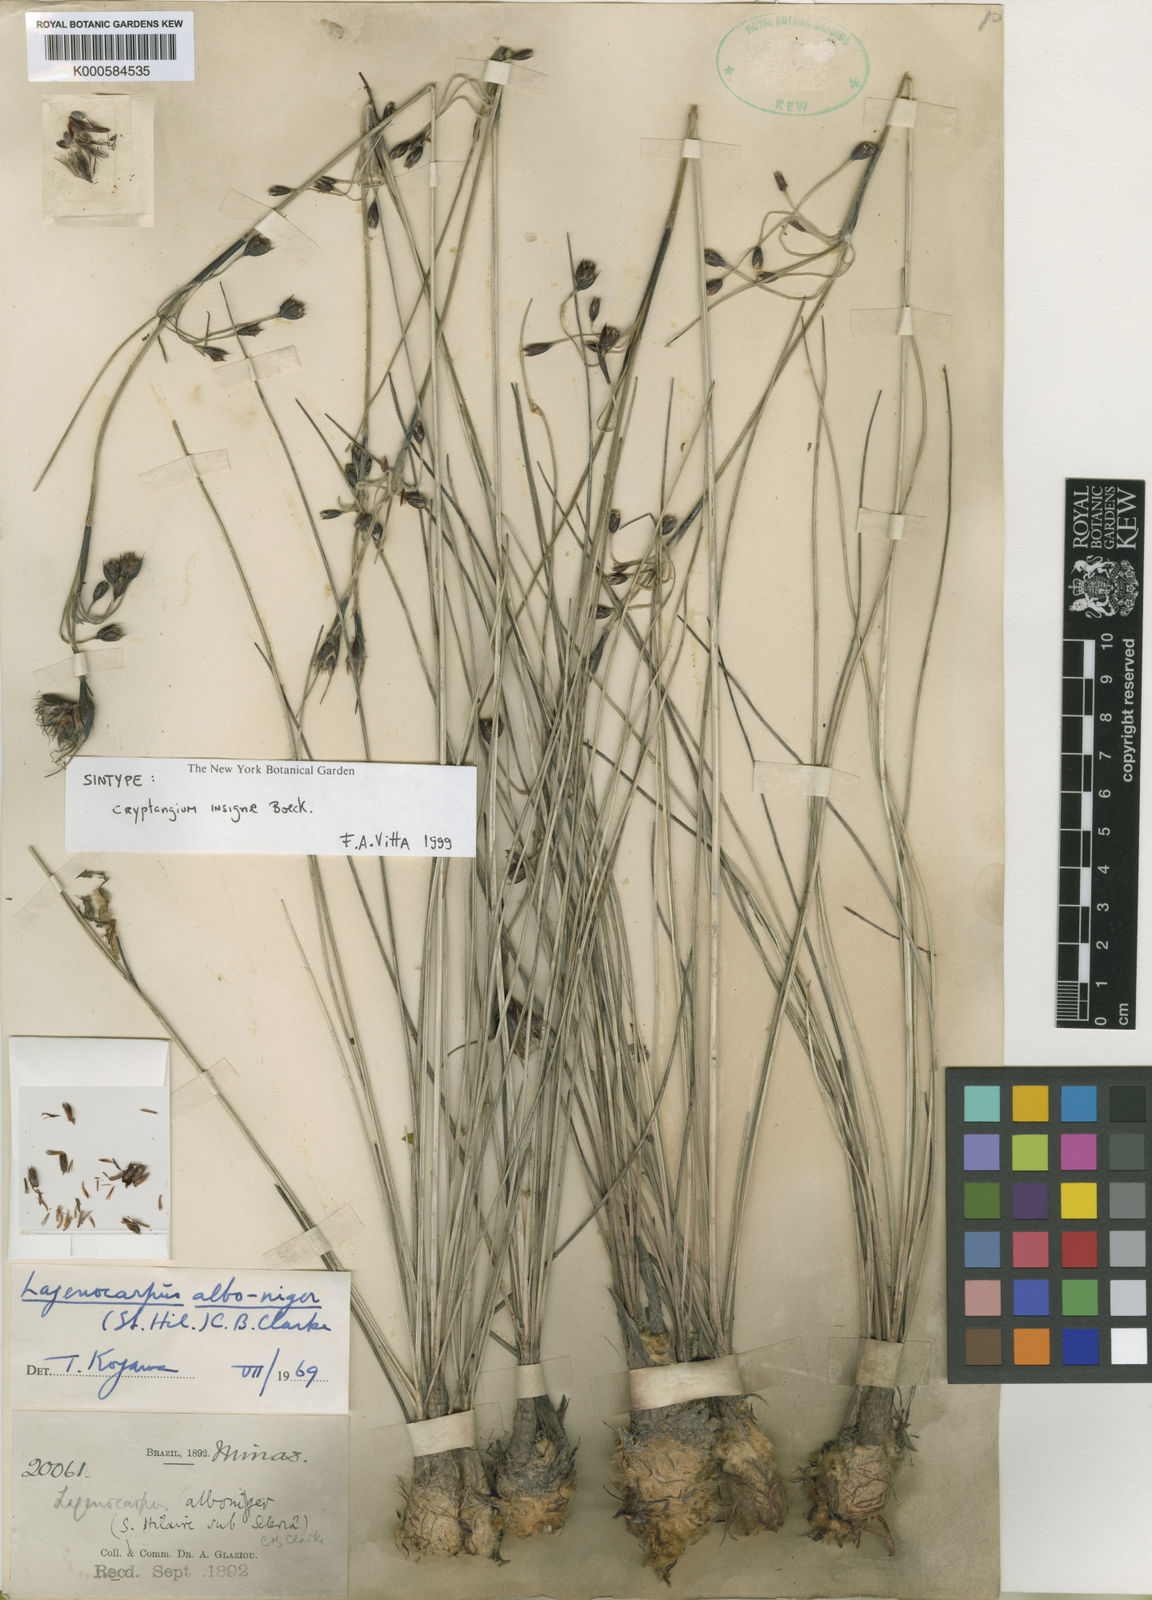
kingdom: Plantae
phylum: Tracheophyta
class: Liliopsida
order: Poales
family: Cyperaceae
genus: Lagenocarpus
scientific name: Lagenocarpus alboniger
